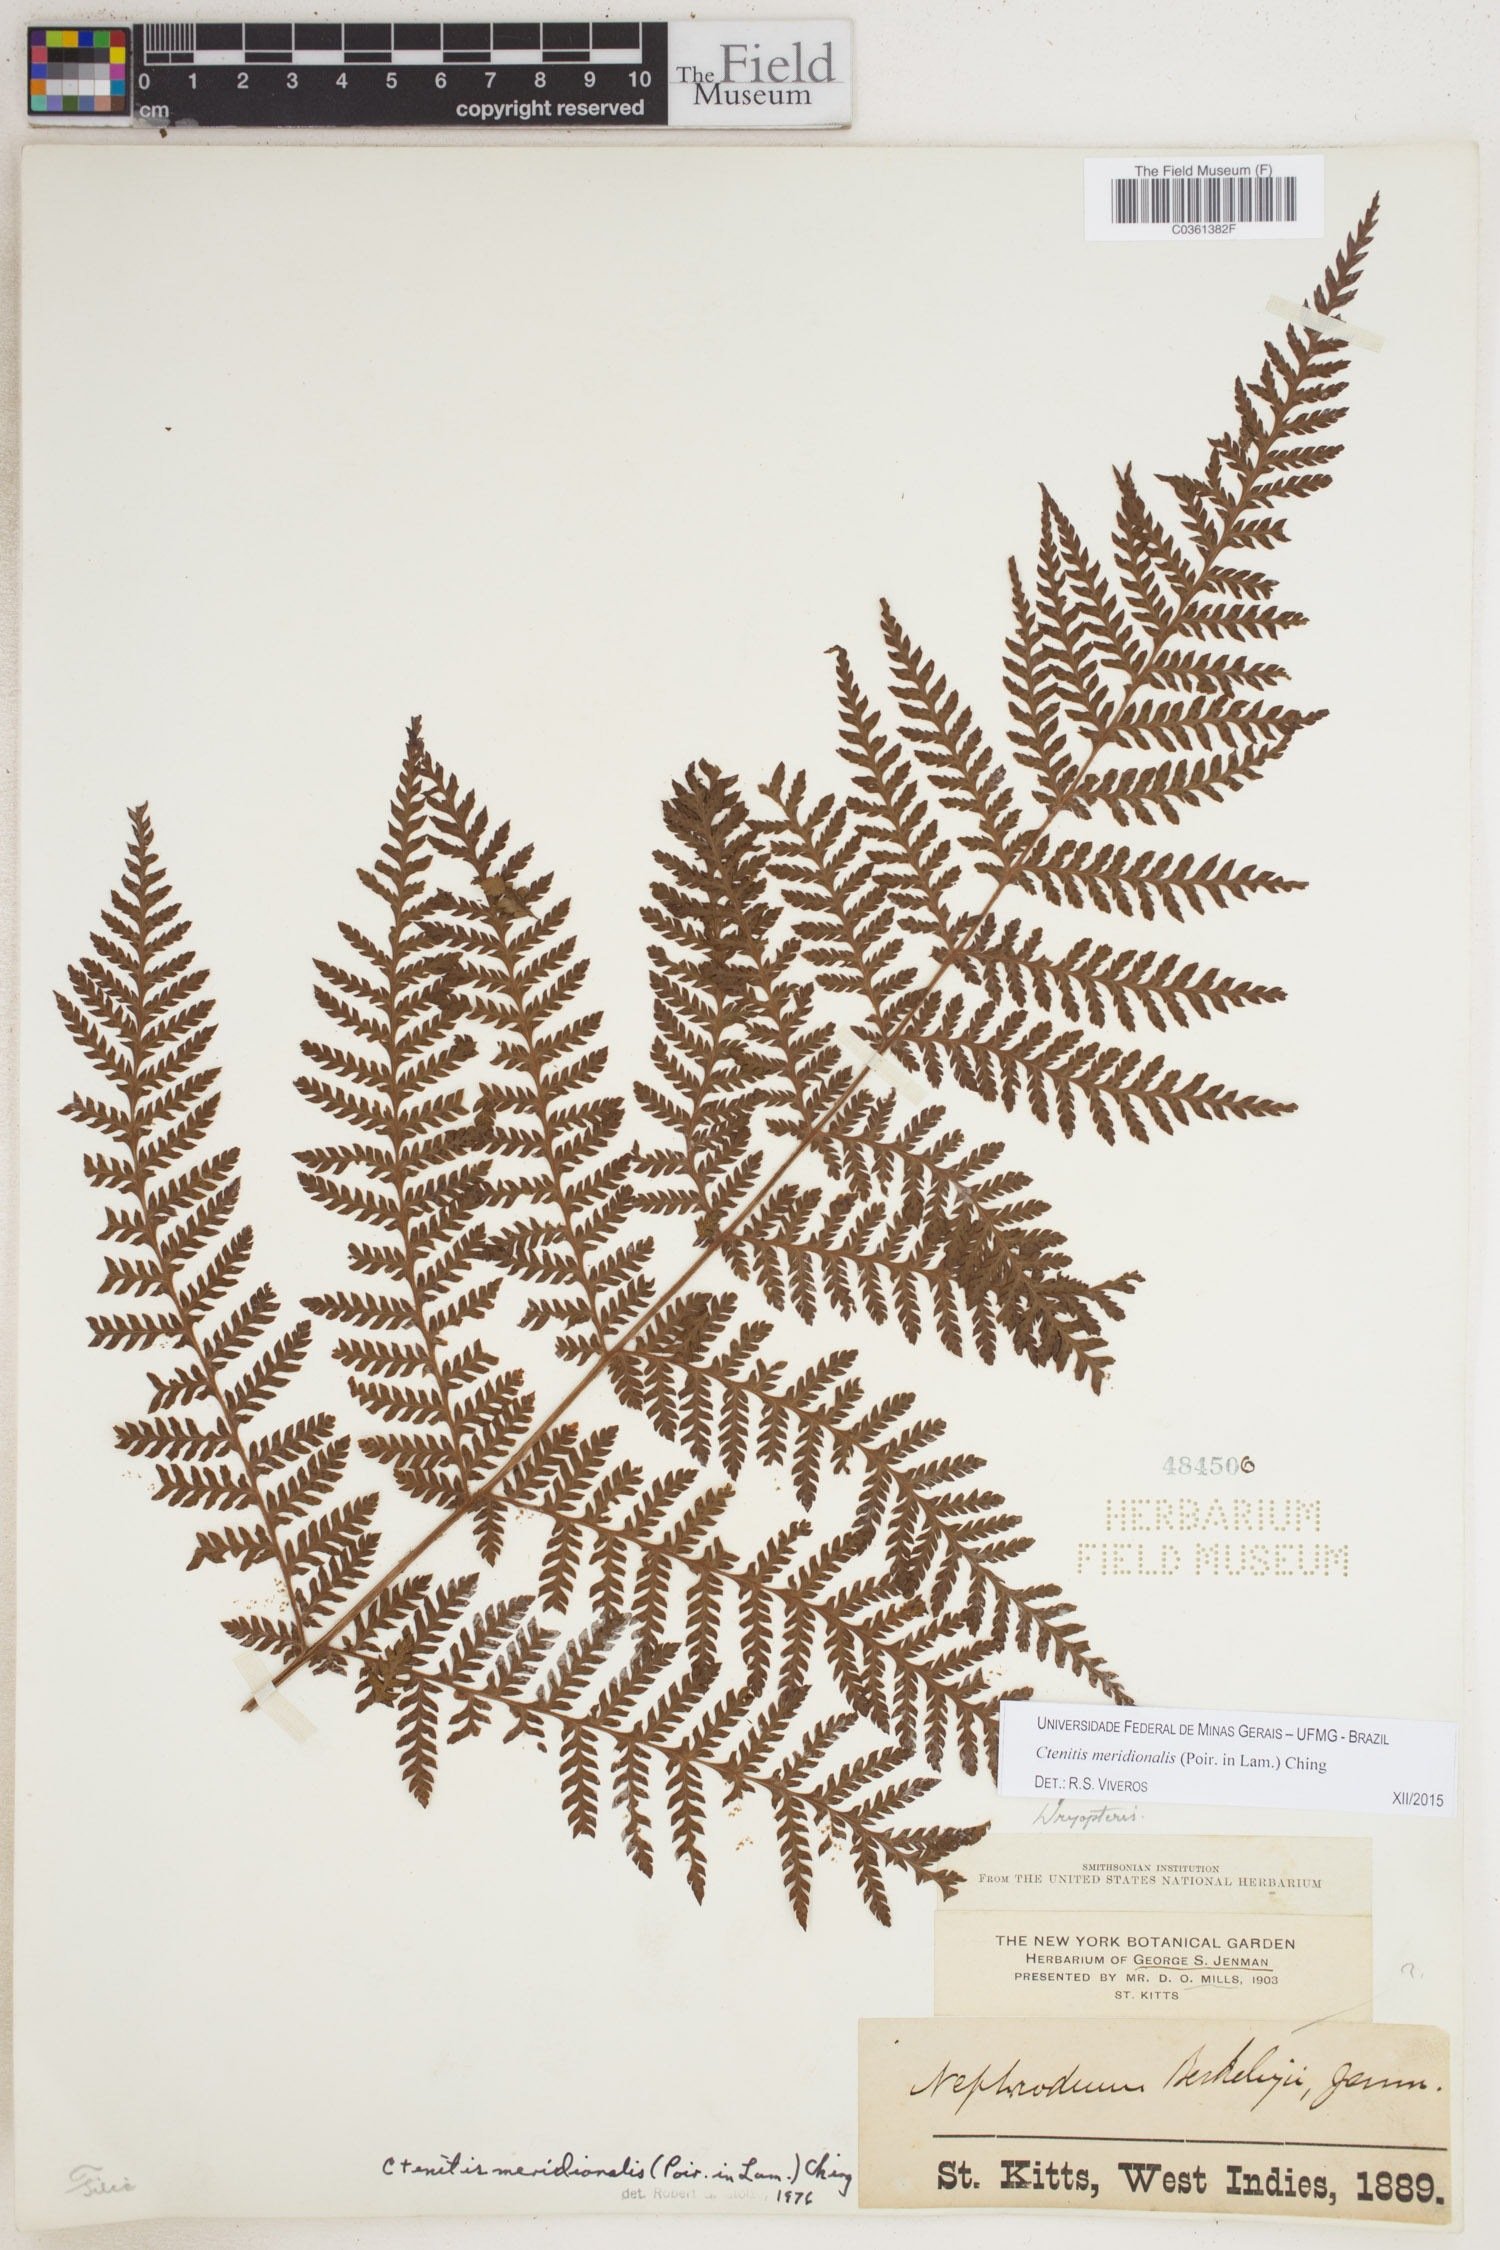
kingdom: Plantae
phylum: Tracheophyta
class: Polypodiopsida
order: Polypodiales
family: Dryopteridaceae
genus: Ctenitis
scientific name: Ctenitis meridionalis
